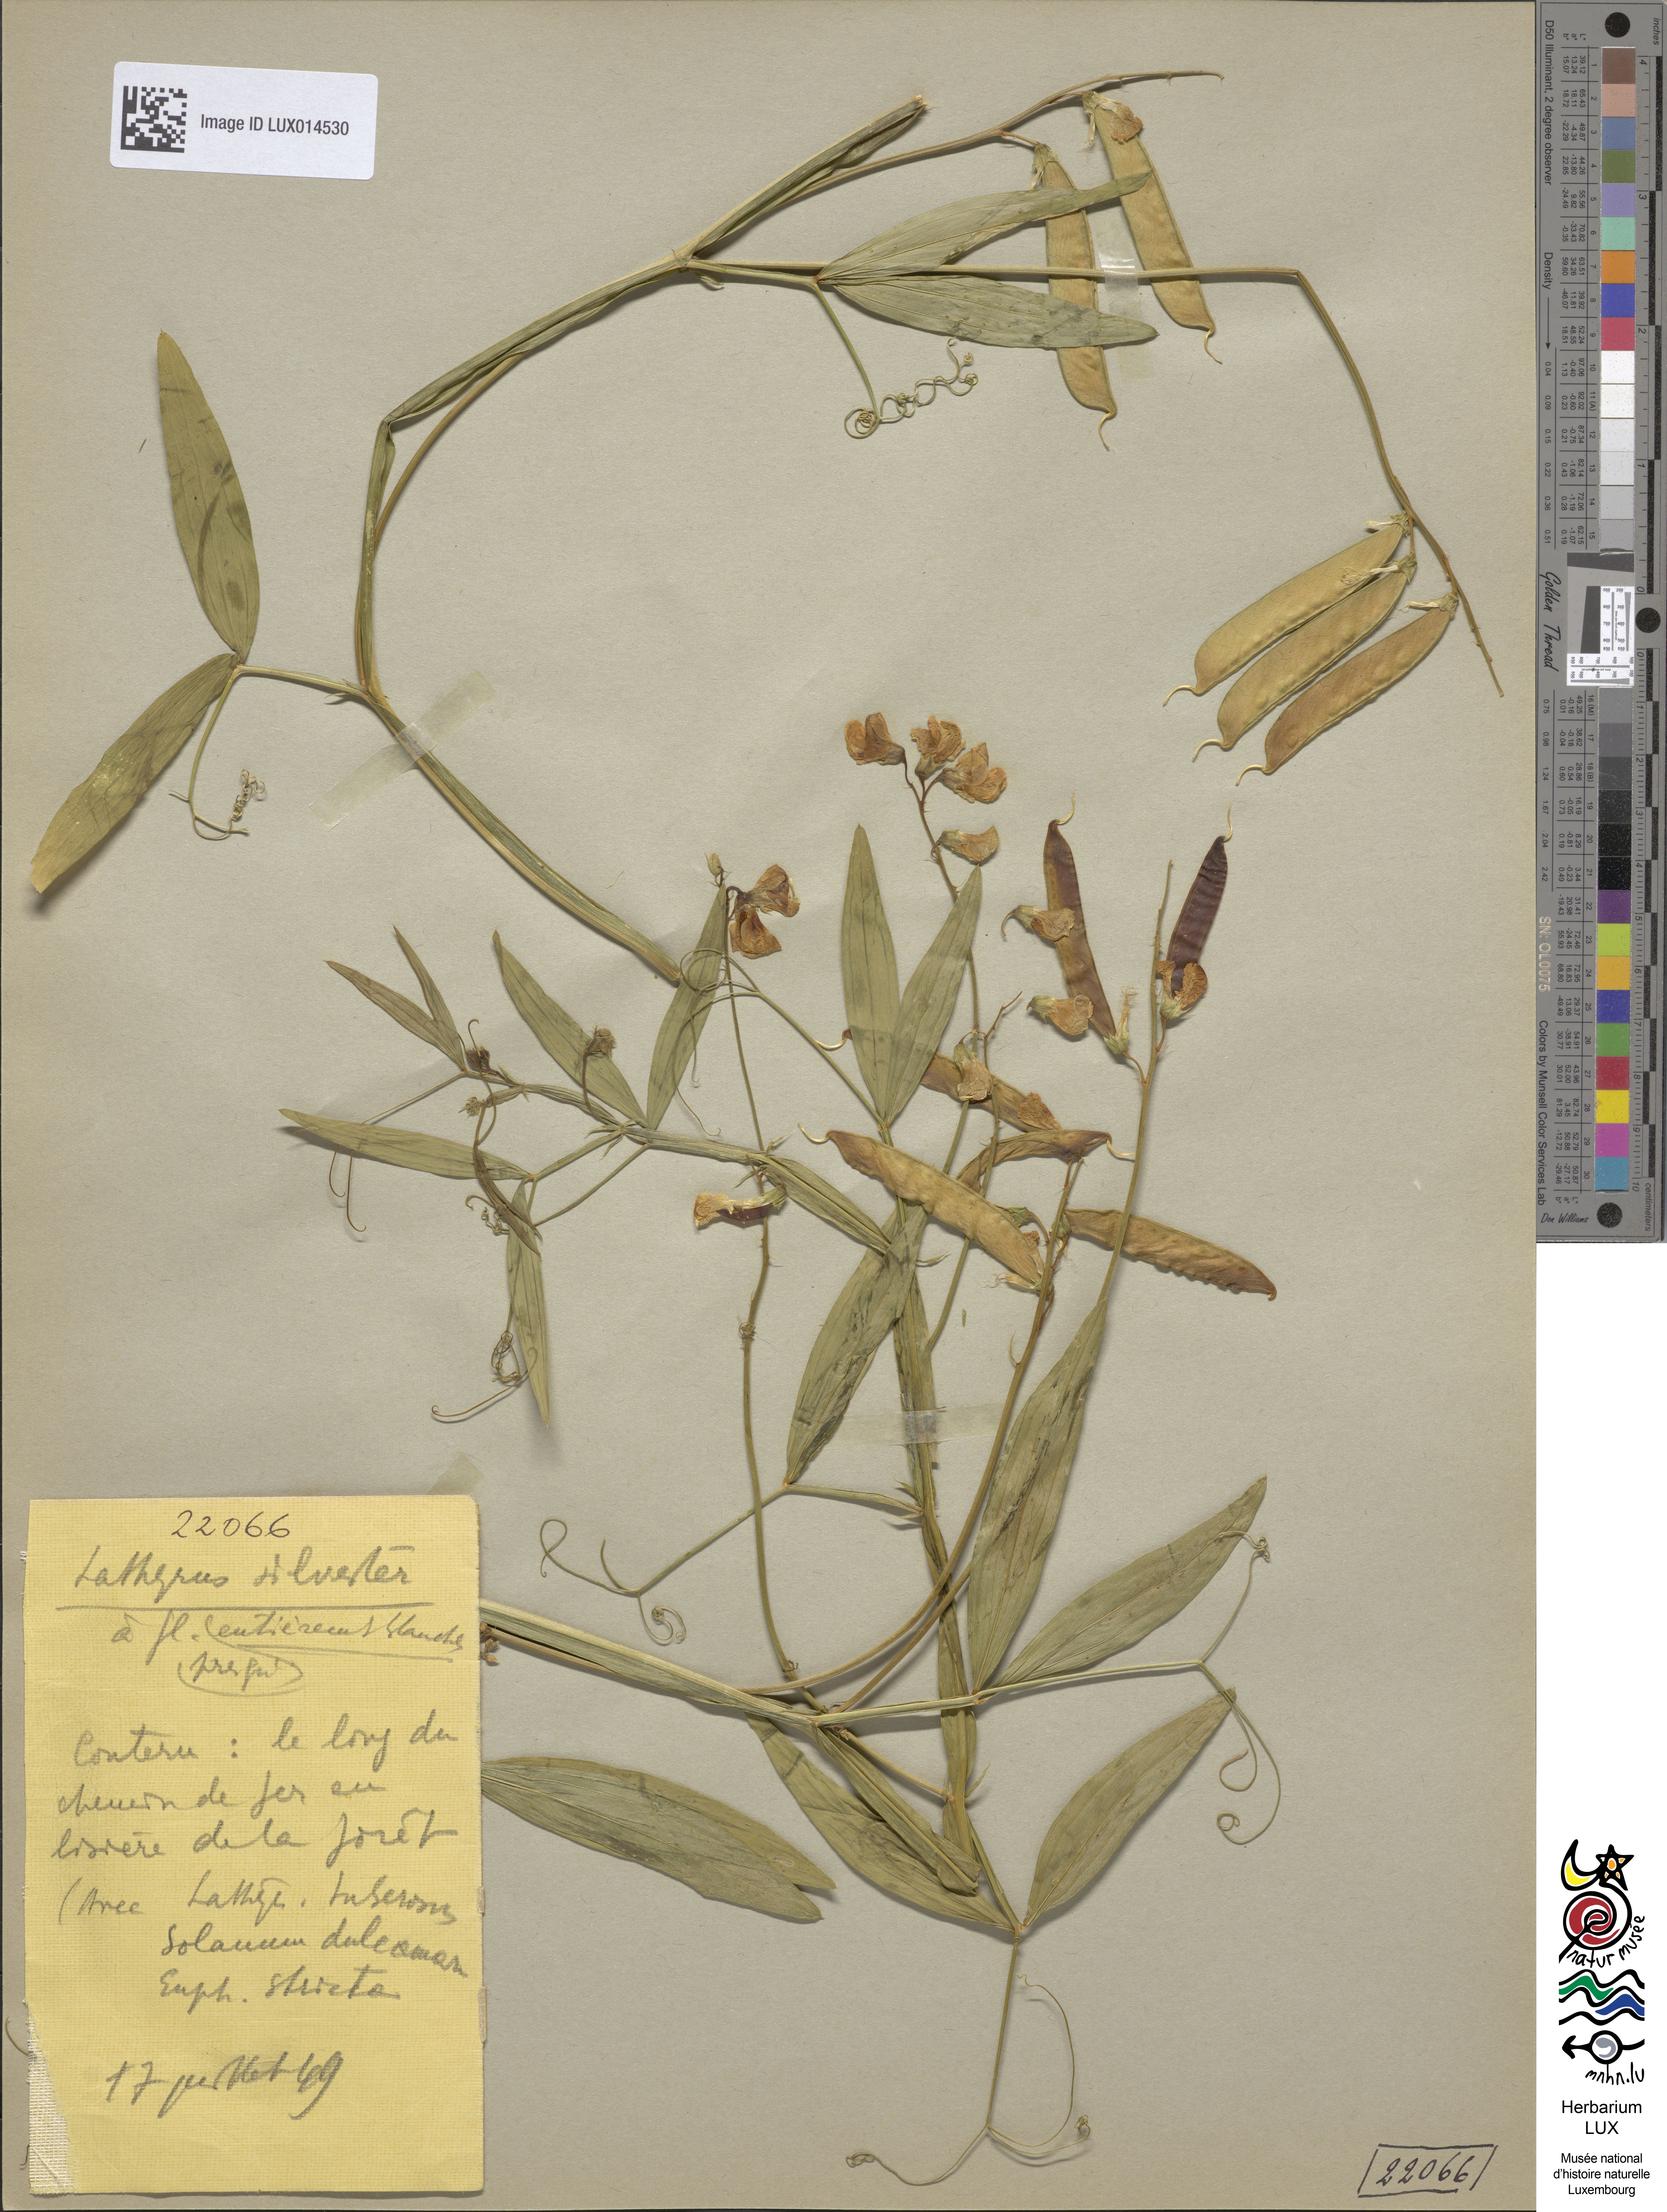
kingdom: Plantae
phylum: Tracheophyta
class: Magnoliopsida
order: Fabales
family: Fabaceae
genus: Lathyrus
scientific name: Lathyrus sylvestris
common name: Flat pea
